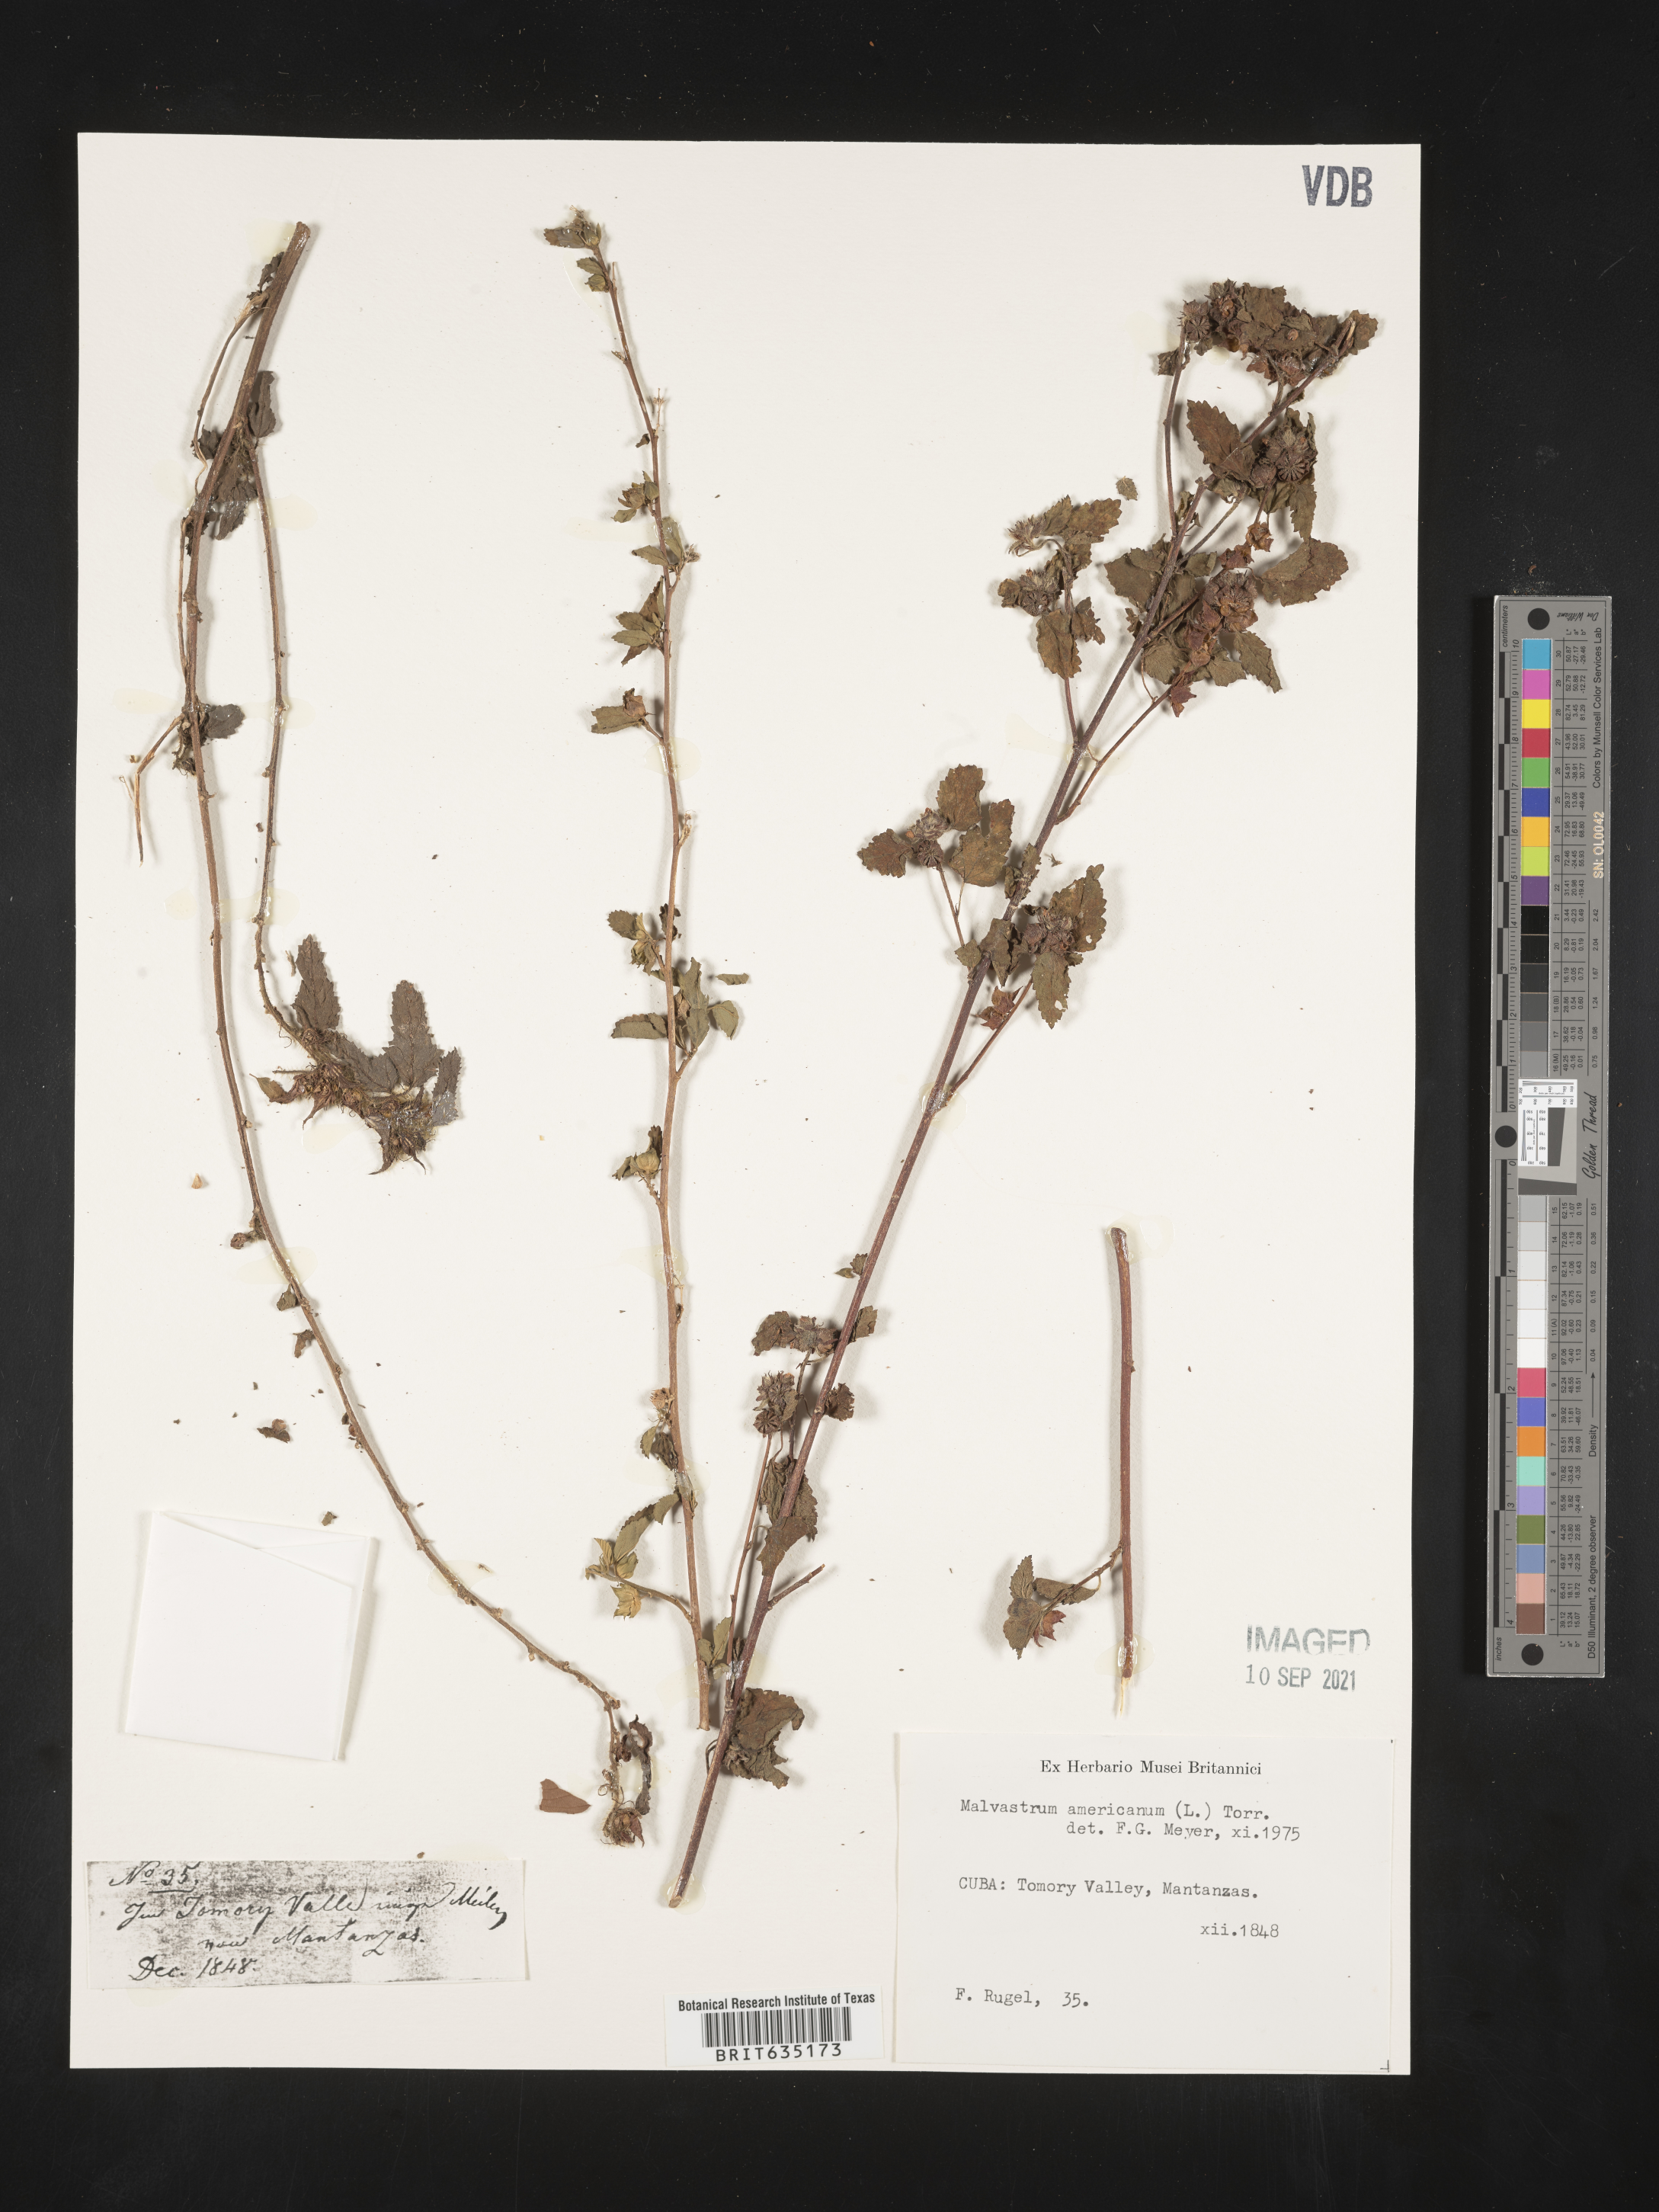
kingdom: Plantae
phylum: Tracheophyta
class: Magnoliopsida
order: Malvales
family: Malvaceae
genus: Malvastrum
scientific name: Malvastrum
